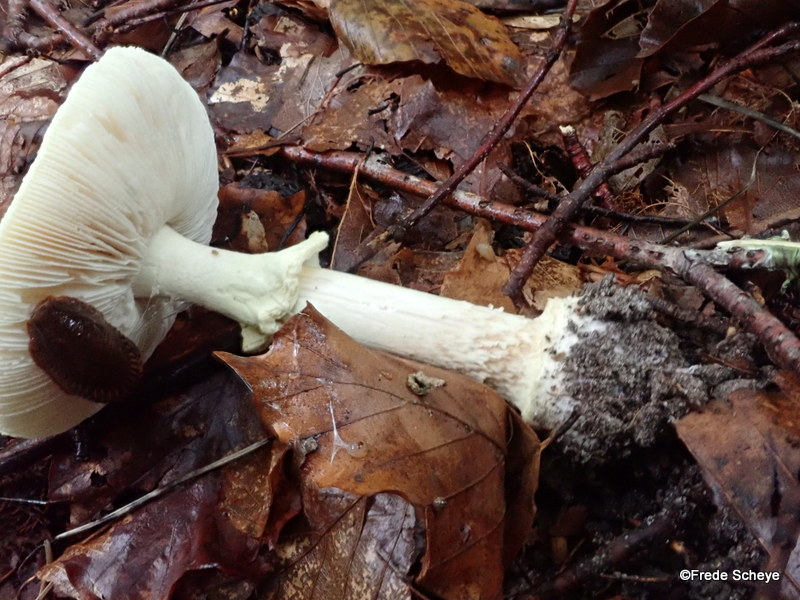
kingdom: Fungi
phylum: Basidiomycota
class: Agaricomycetes
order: Agaricales
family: Amanitaceae
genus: Amanita
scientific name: Amanita citrina
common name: kugleknoldet fluesvamp
